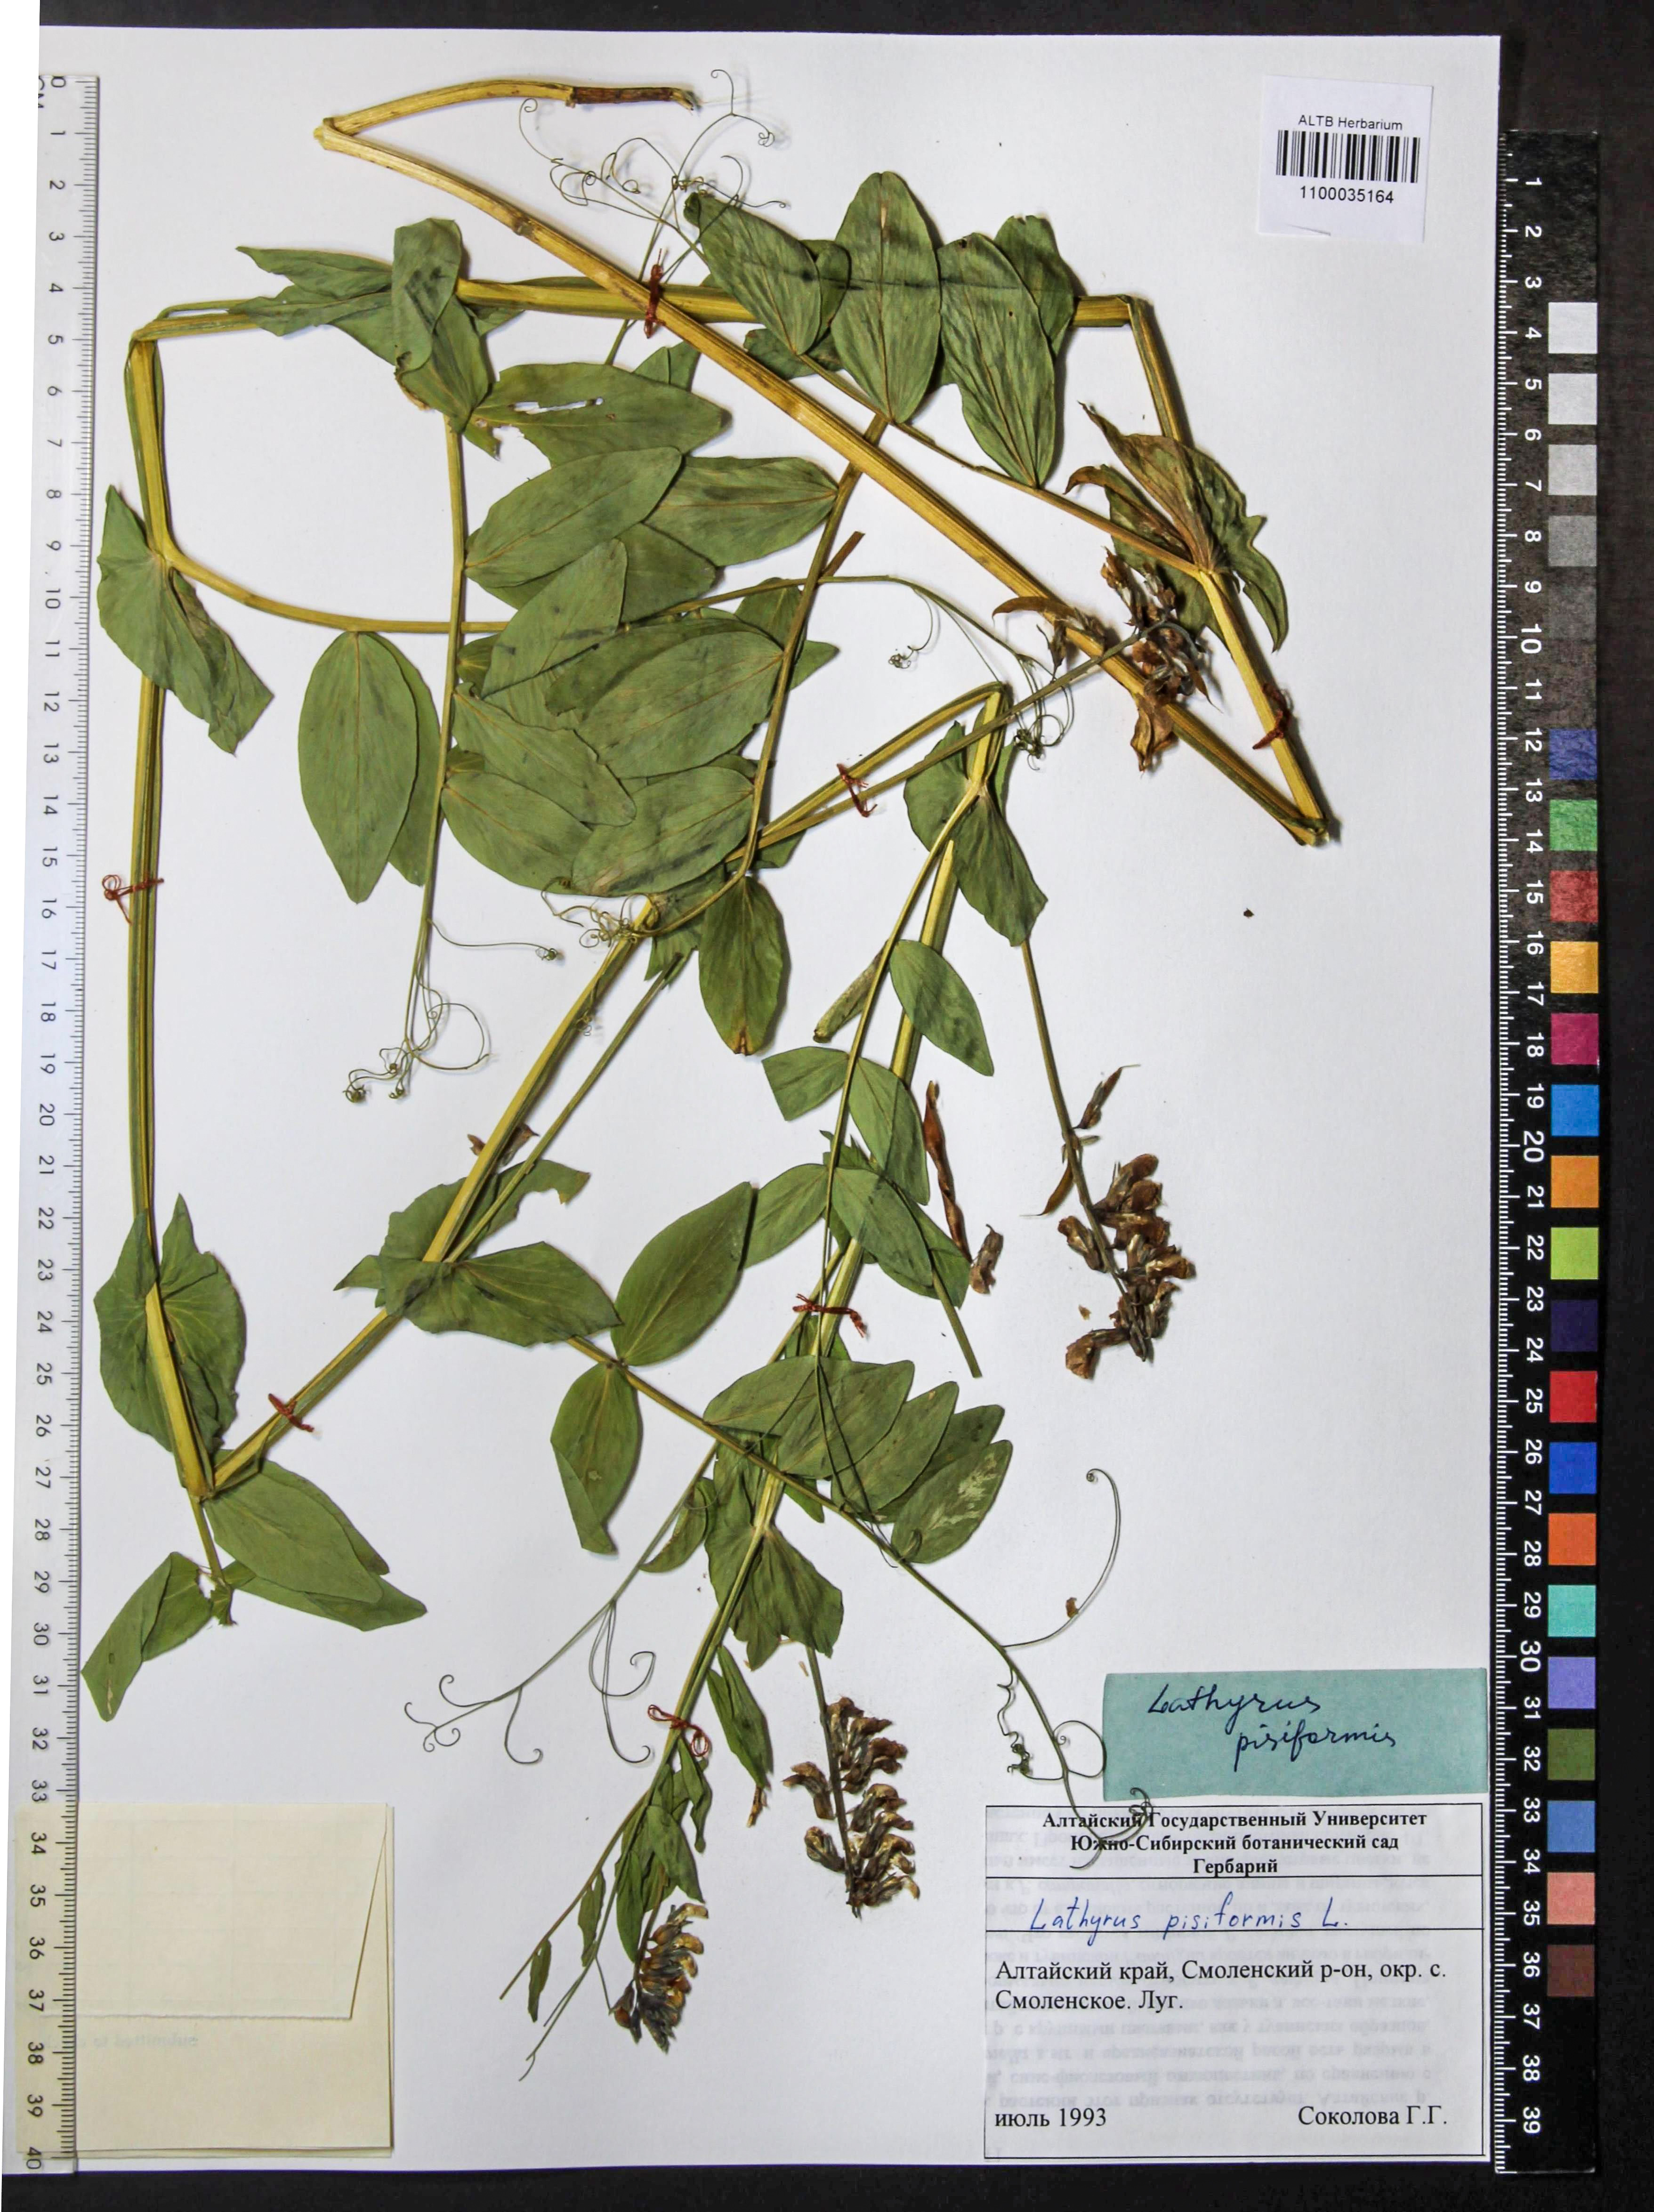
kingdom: Plantae
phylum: Tracheophyta
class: Magnoliopsida
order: Fabales
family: Fabaceae
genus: Lathyrus
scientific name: Lathyrus pisiformis
